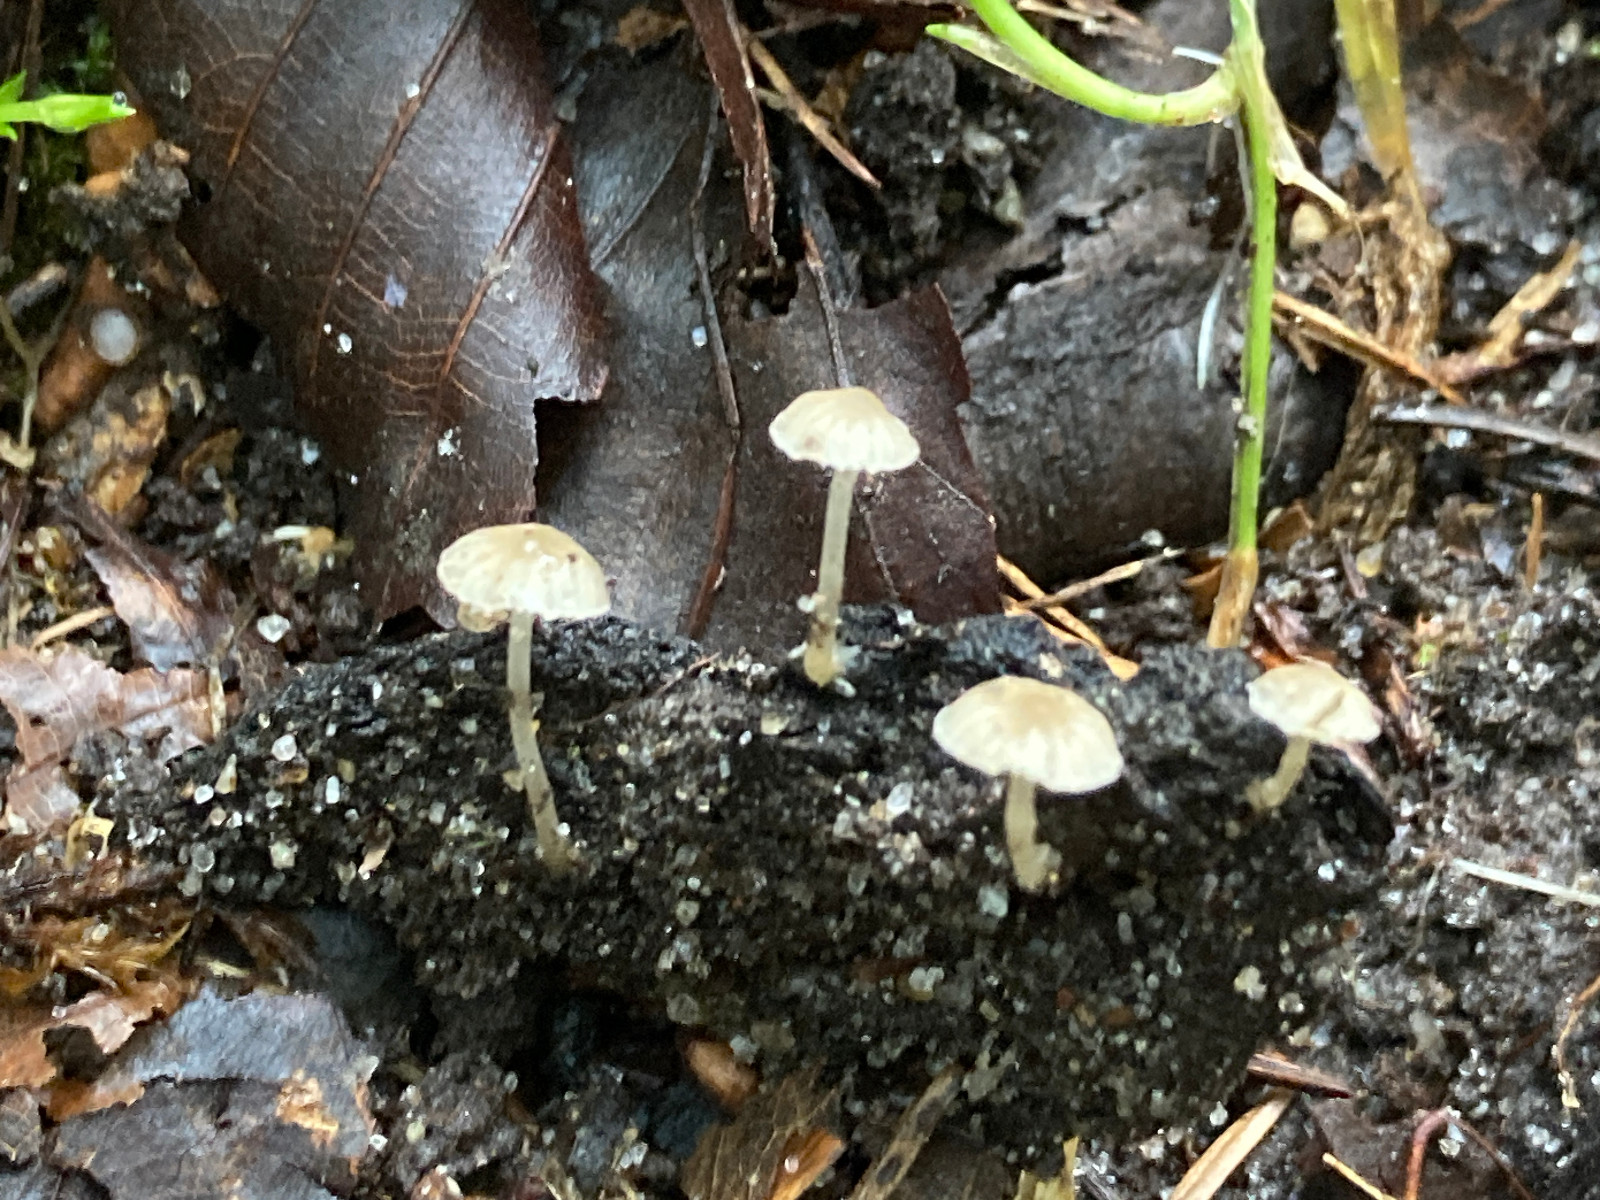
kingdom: Fungi
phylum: Basidiomycota
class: Agaricomycetes
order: Agaricales
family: Porotheleaceae
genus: Phloeomana
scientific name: Phloeomana speirea
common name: kvist-huesvamp
